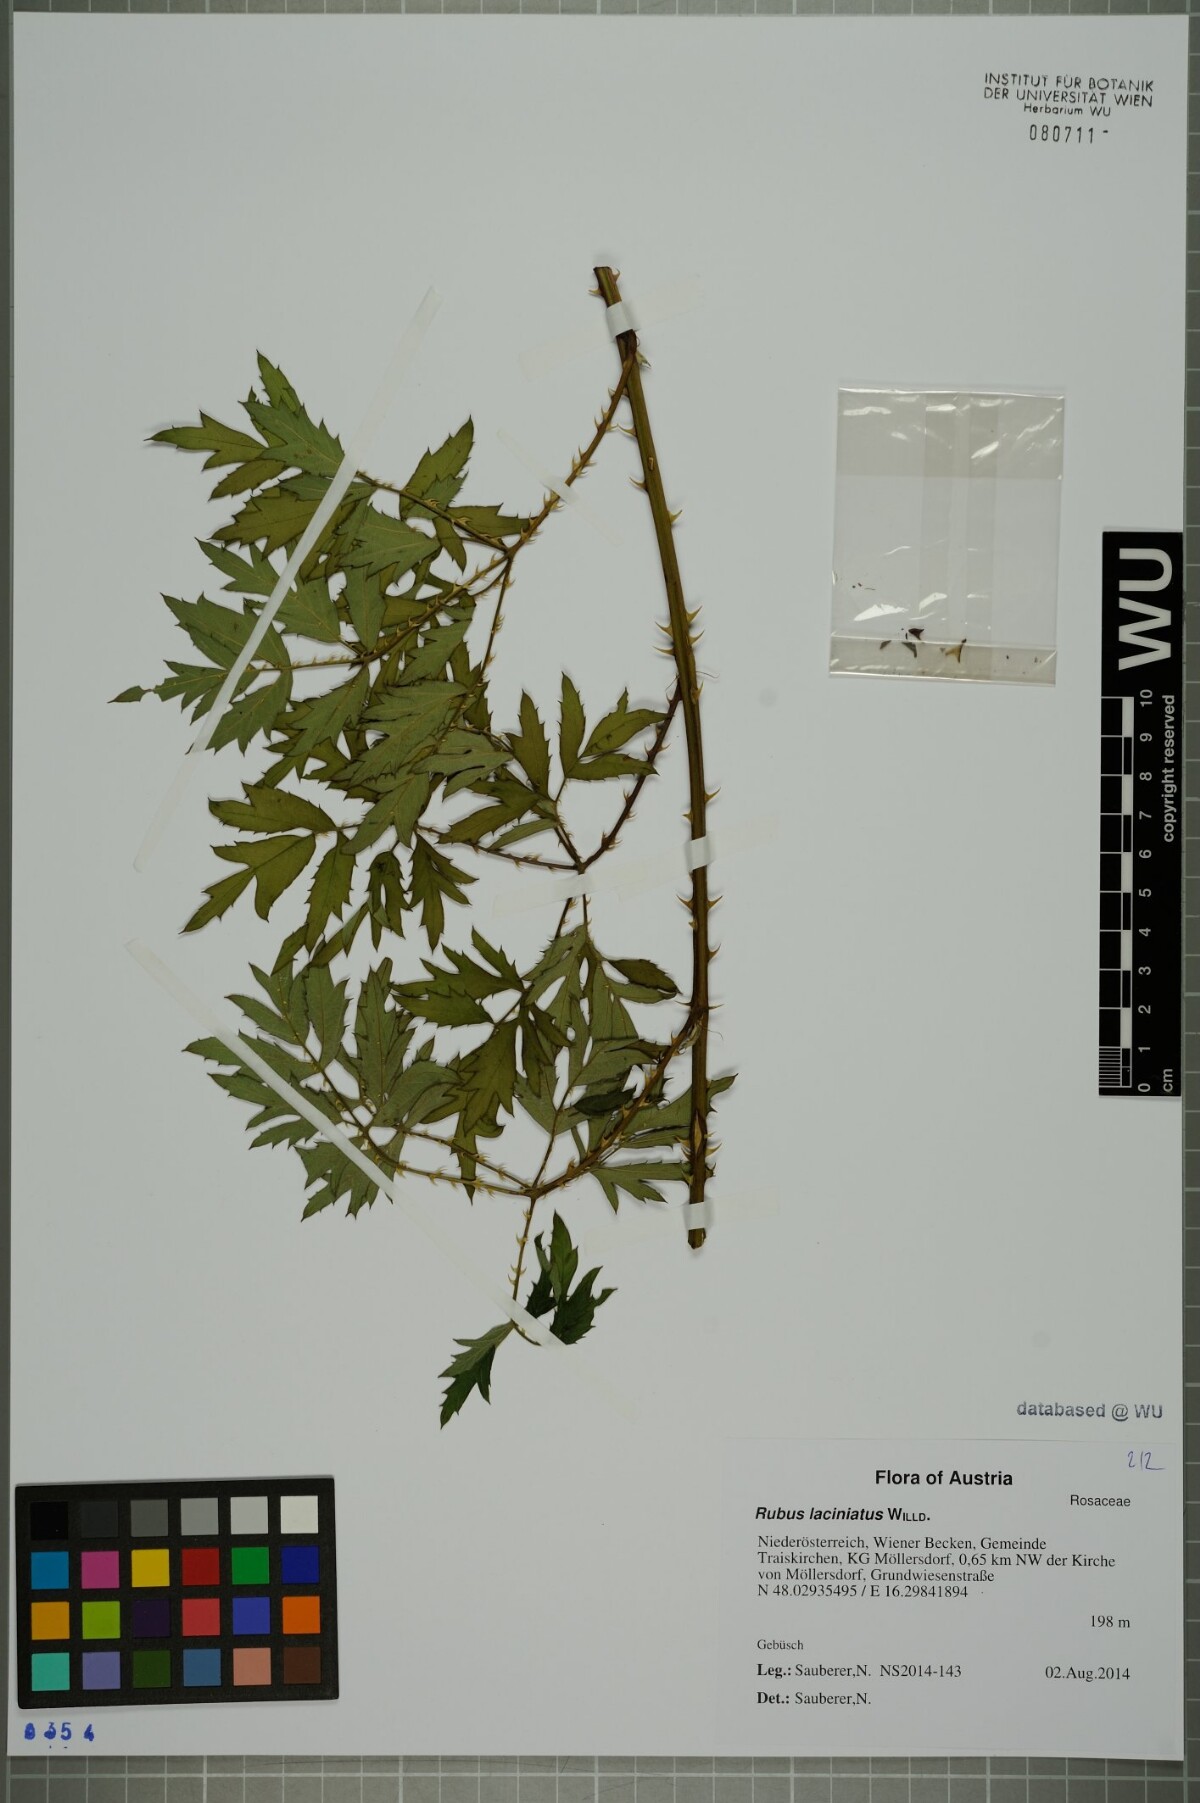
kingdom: Plantae
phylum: Tracheophyta
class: Magnoliopsida
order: Rosales
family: Rosaceae
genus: Rubus
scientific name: Rubus laciniatus
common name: Evergreen blackberry
